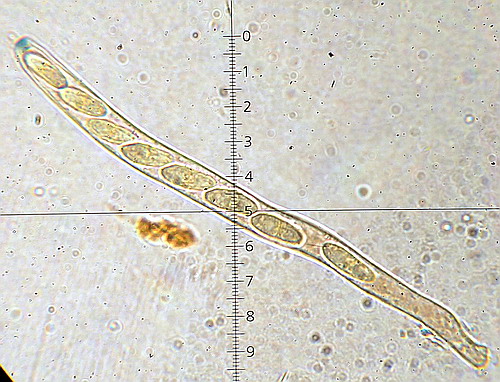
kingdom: Fungi
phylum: Ascomycota
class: Leotiomycetes
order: Helotiales
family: Rutstroemiaceae
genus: Rutstroemia
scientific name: Rutstroemia firma
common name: gren-brunskive
